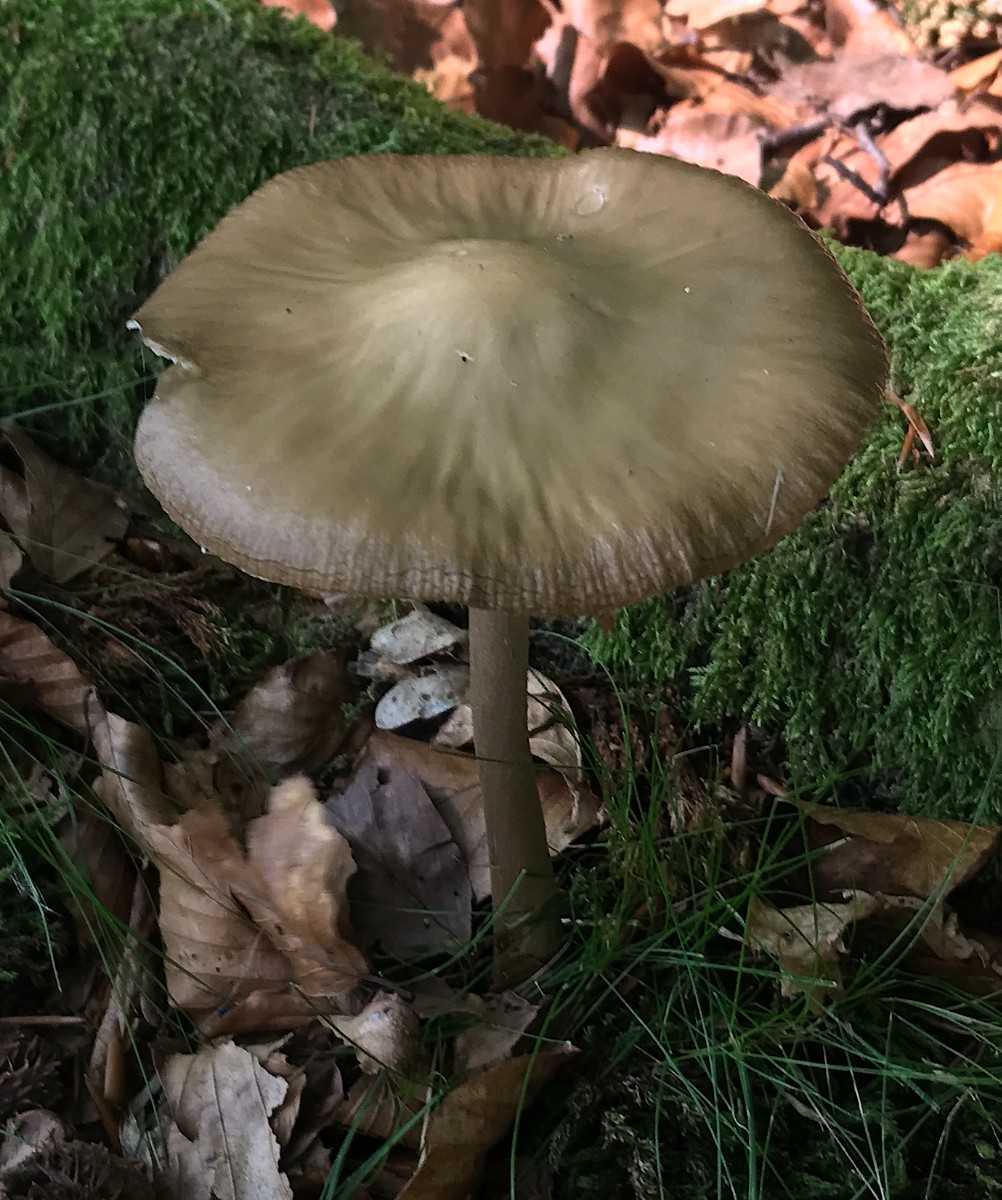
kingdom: Fungi
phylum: Basidiomycota
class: Agaricomycetes
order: Agaricales
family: Physalacriaceae
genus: Hymenopellis
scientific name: Hymenopellis radicata
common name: almindelig pælerodshat
